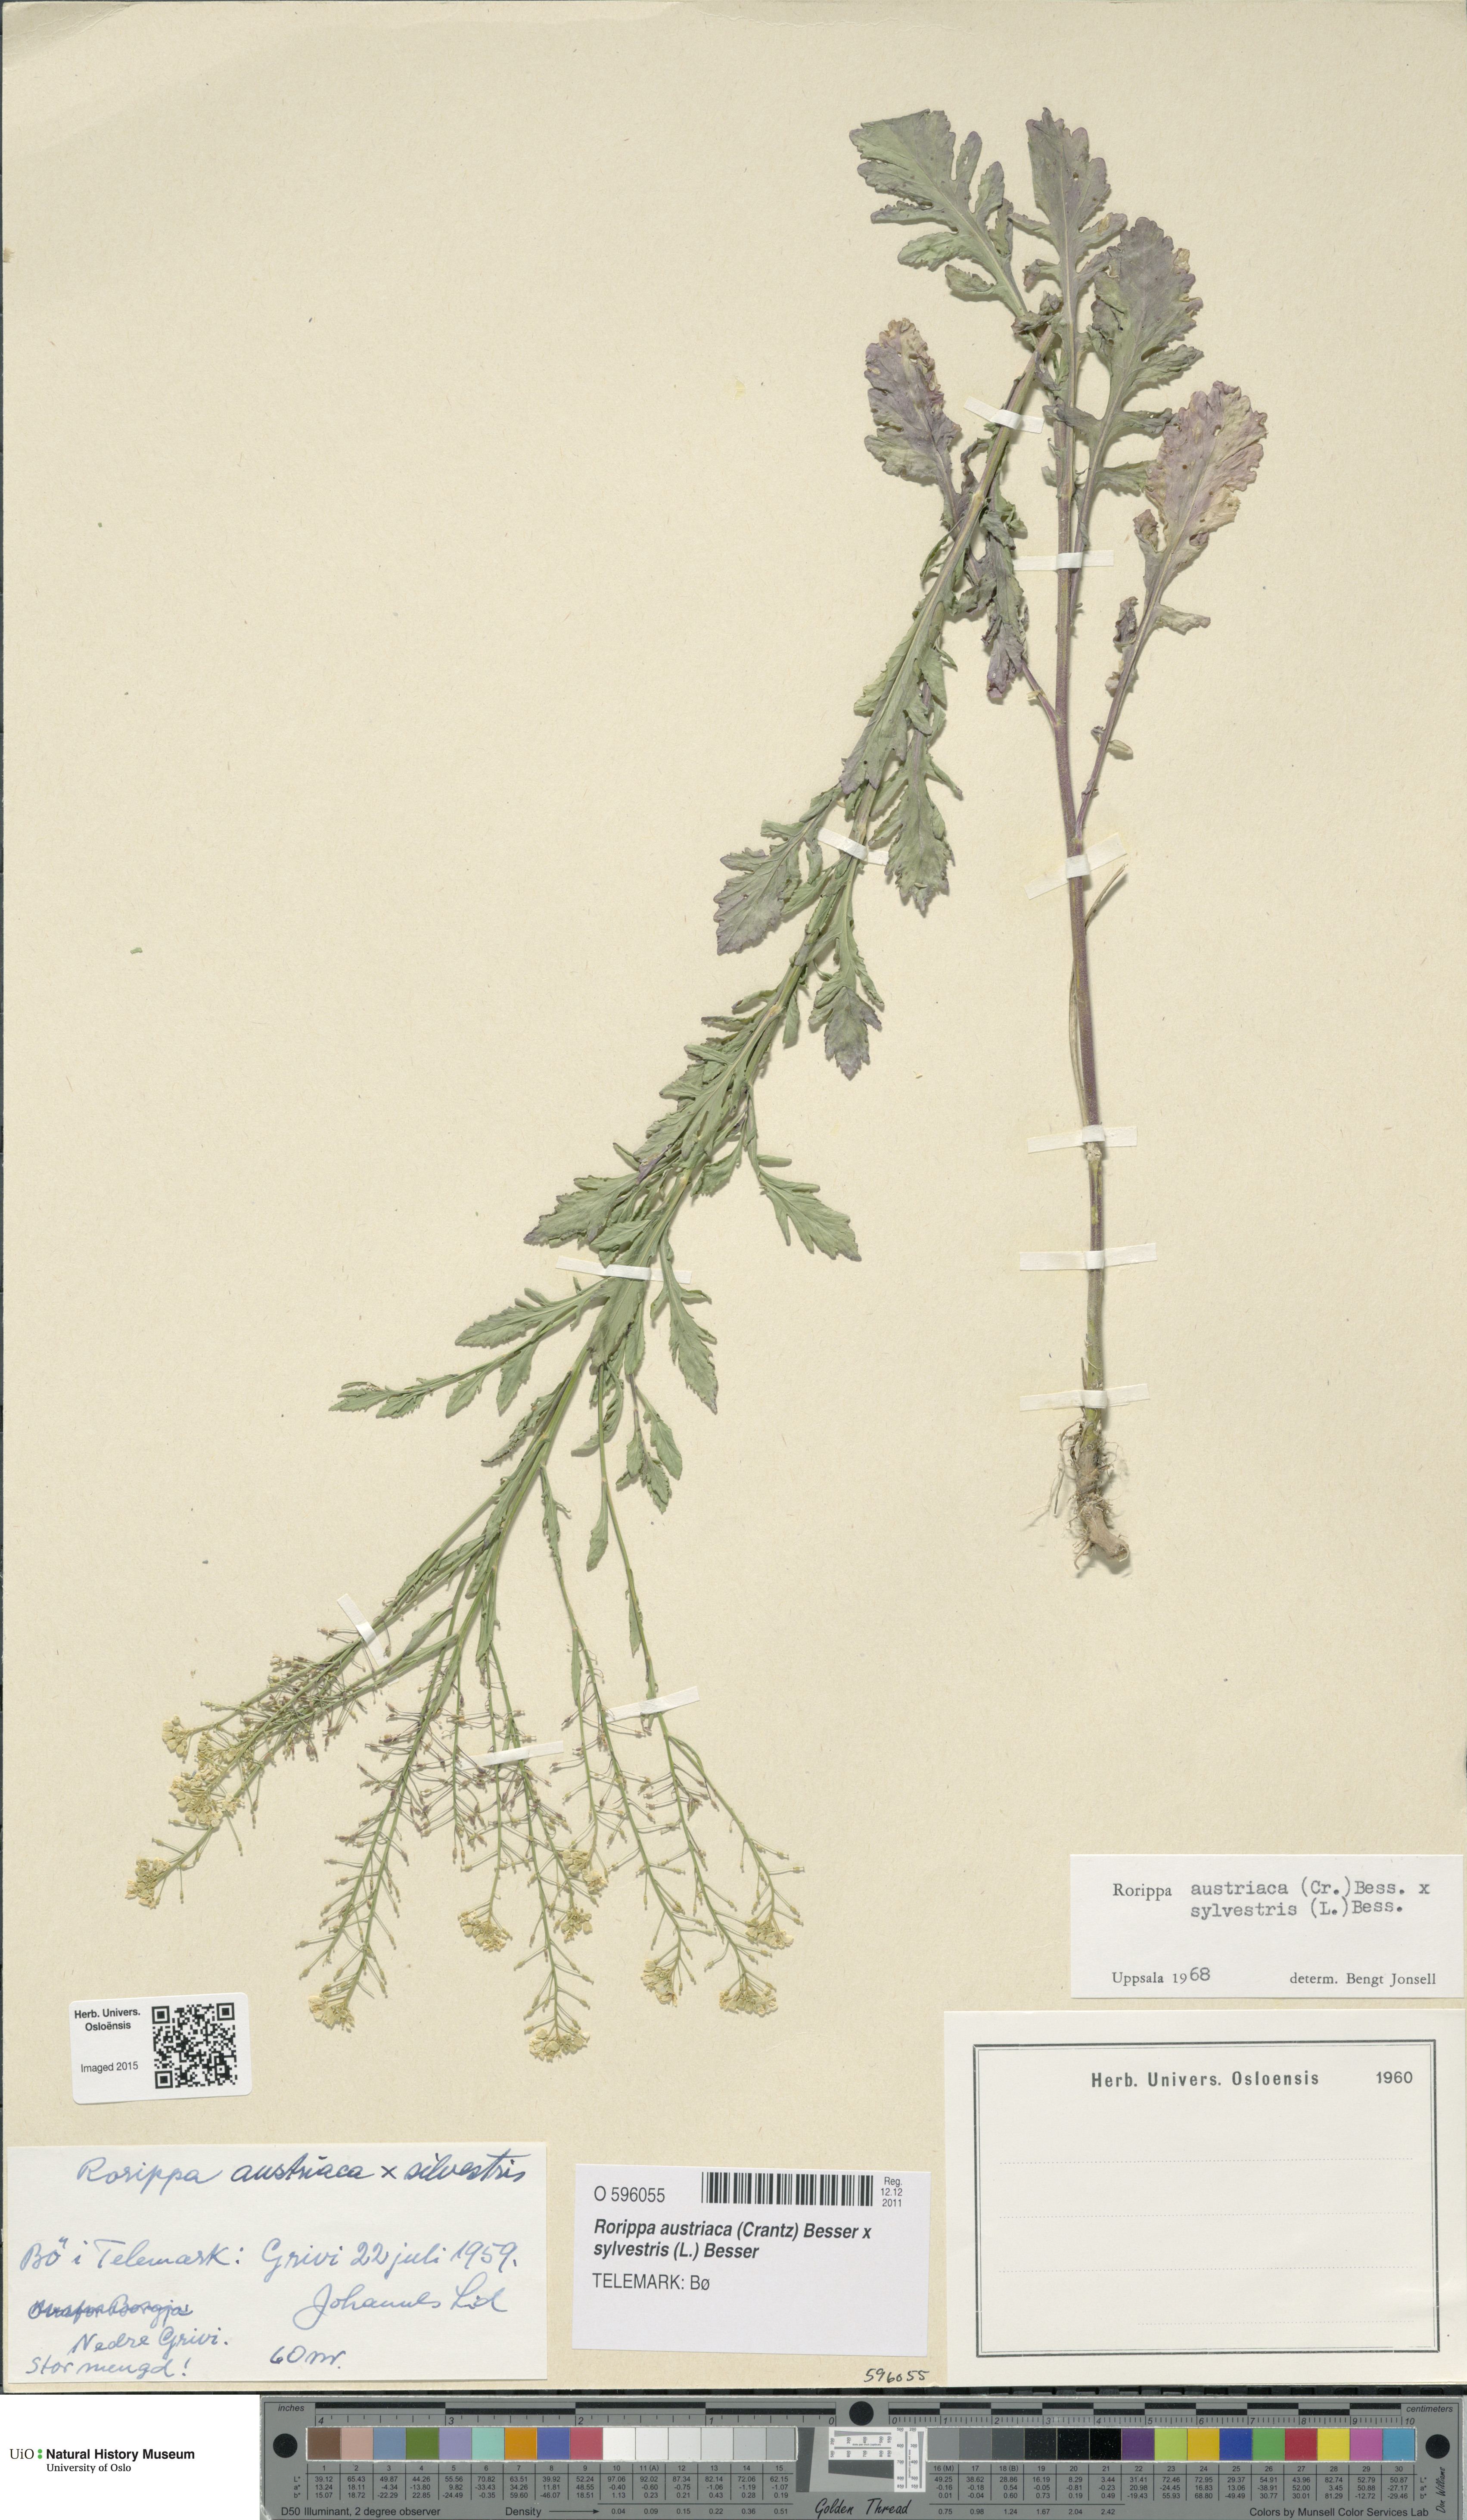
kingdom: Plantae
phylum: Tracheophyta
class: Magnoliopsida
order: Brassicales
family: Brassicaceae
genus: Rorippa
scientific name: Rorippa
